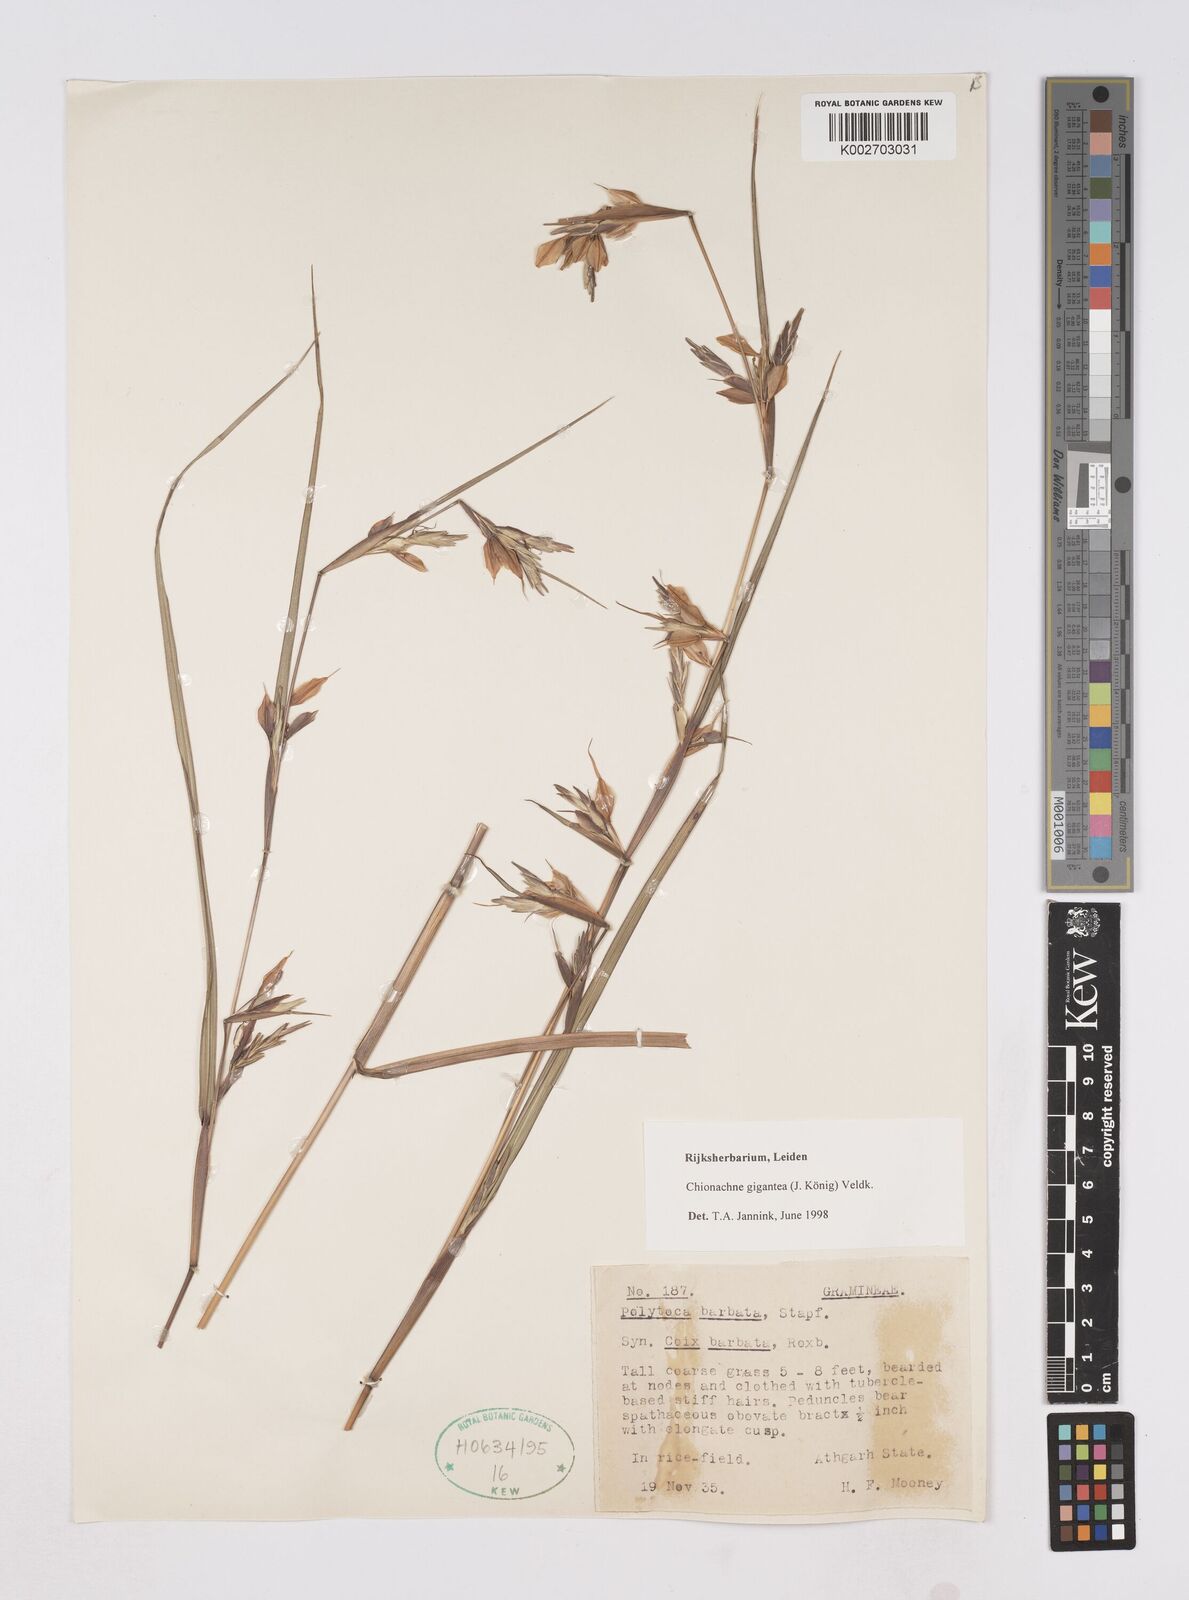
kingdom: Plantae
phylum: Tracheophyta
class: Liliopsida
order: Poales
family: Poaceae
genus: Polytoca
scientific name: Polytoca gigantea
